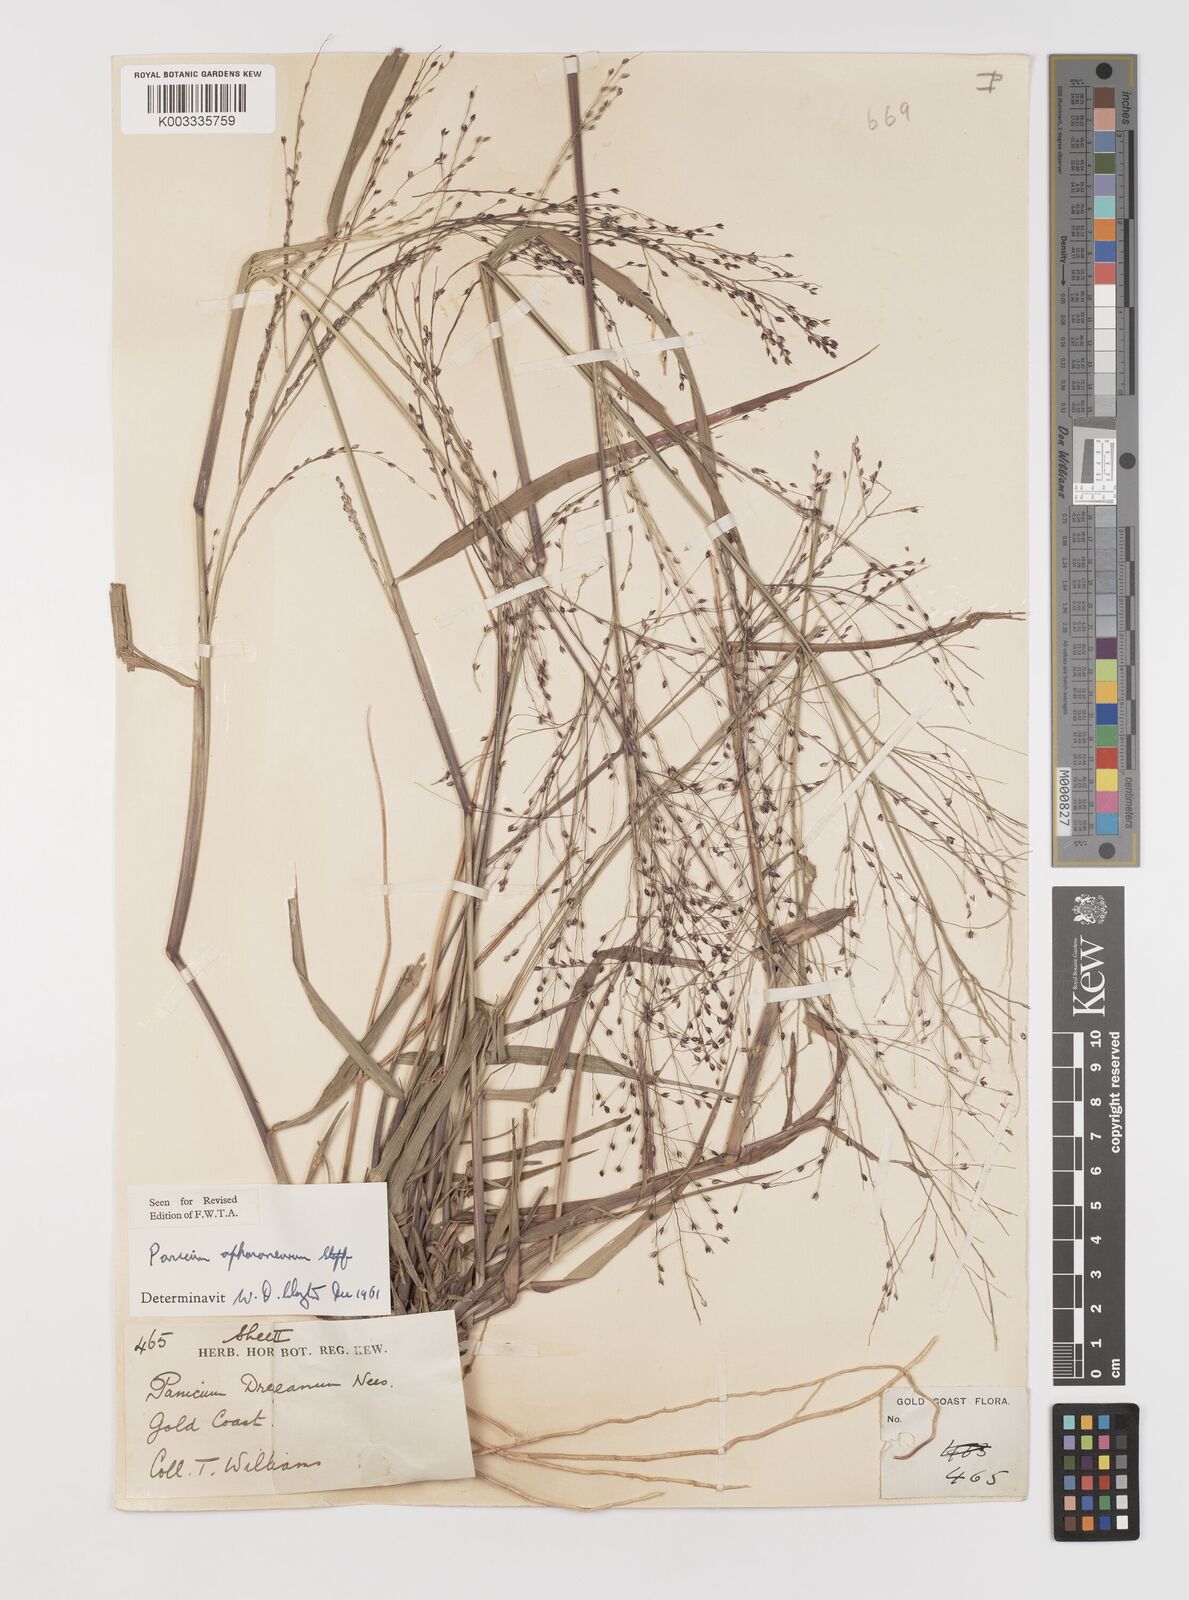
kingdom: Plantae
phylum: Tracheophyta
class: Liliopsida
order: Poales
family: Poaceae
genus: Panicum
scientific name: Panicum fluviicola
